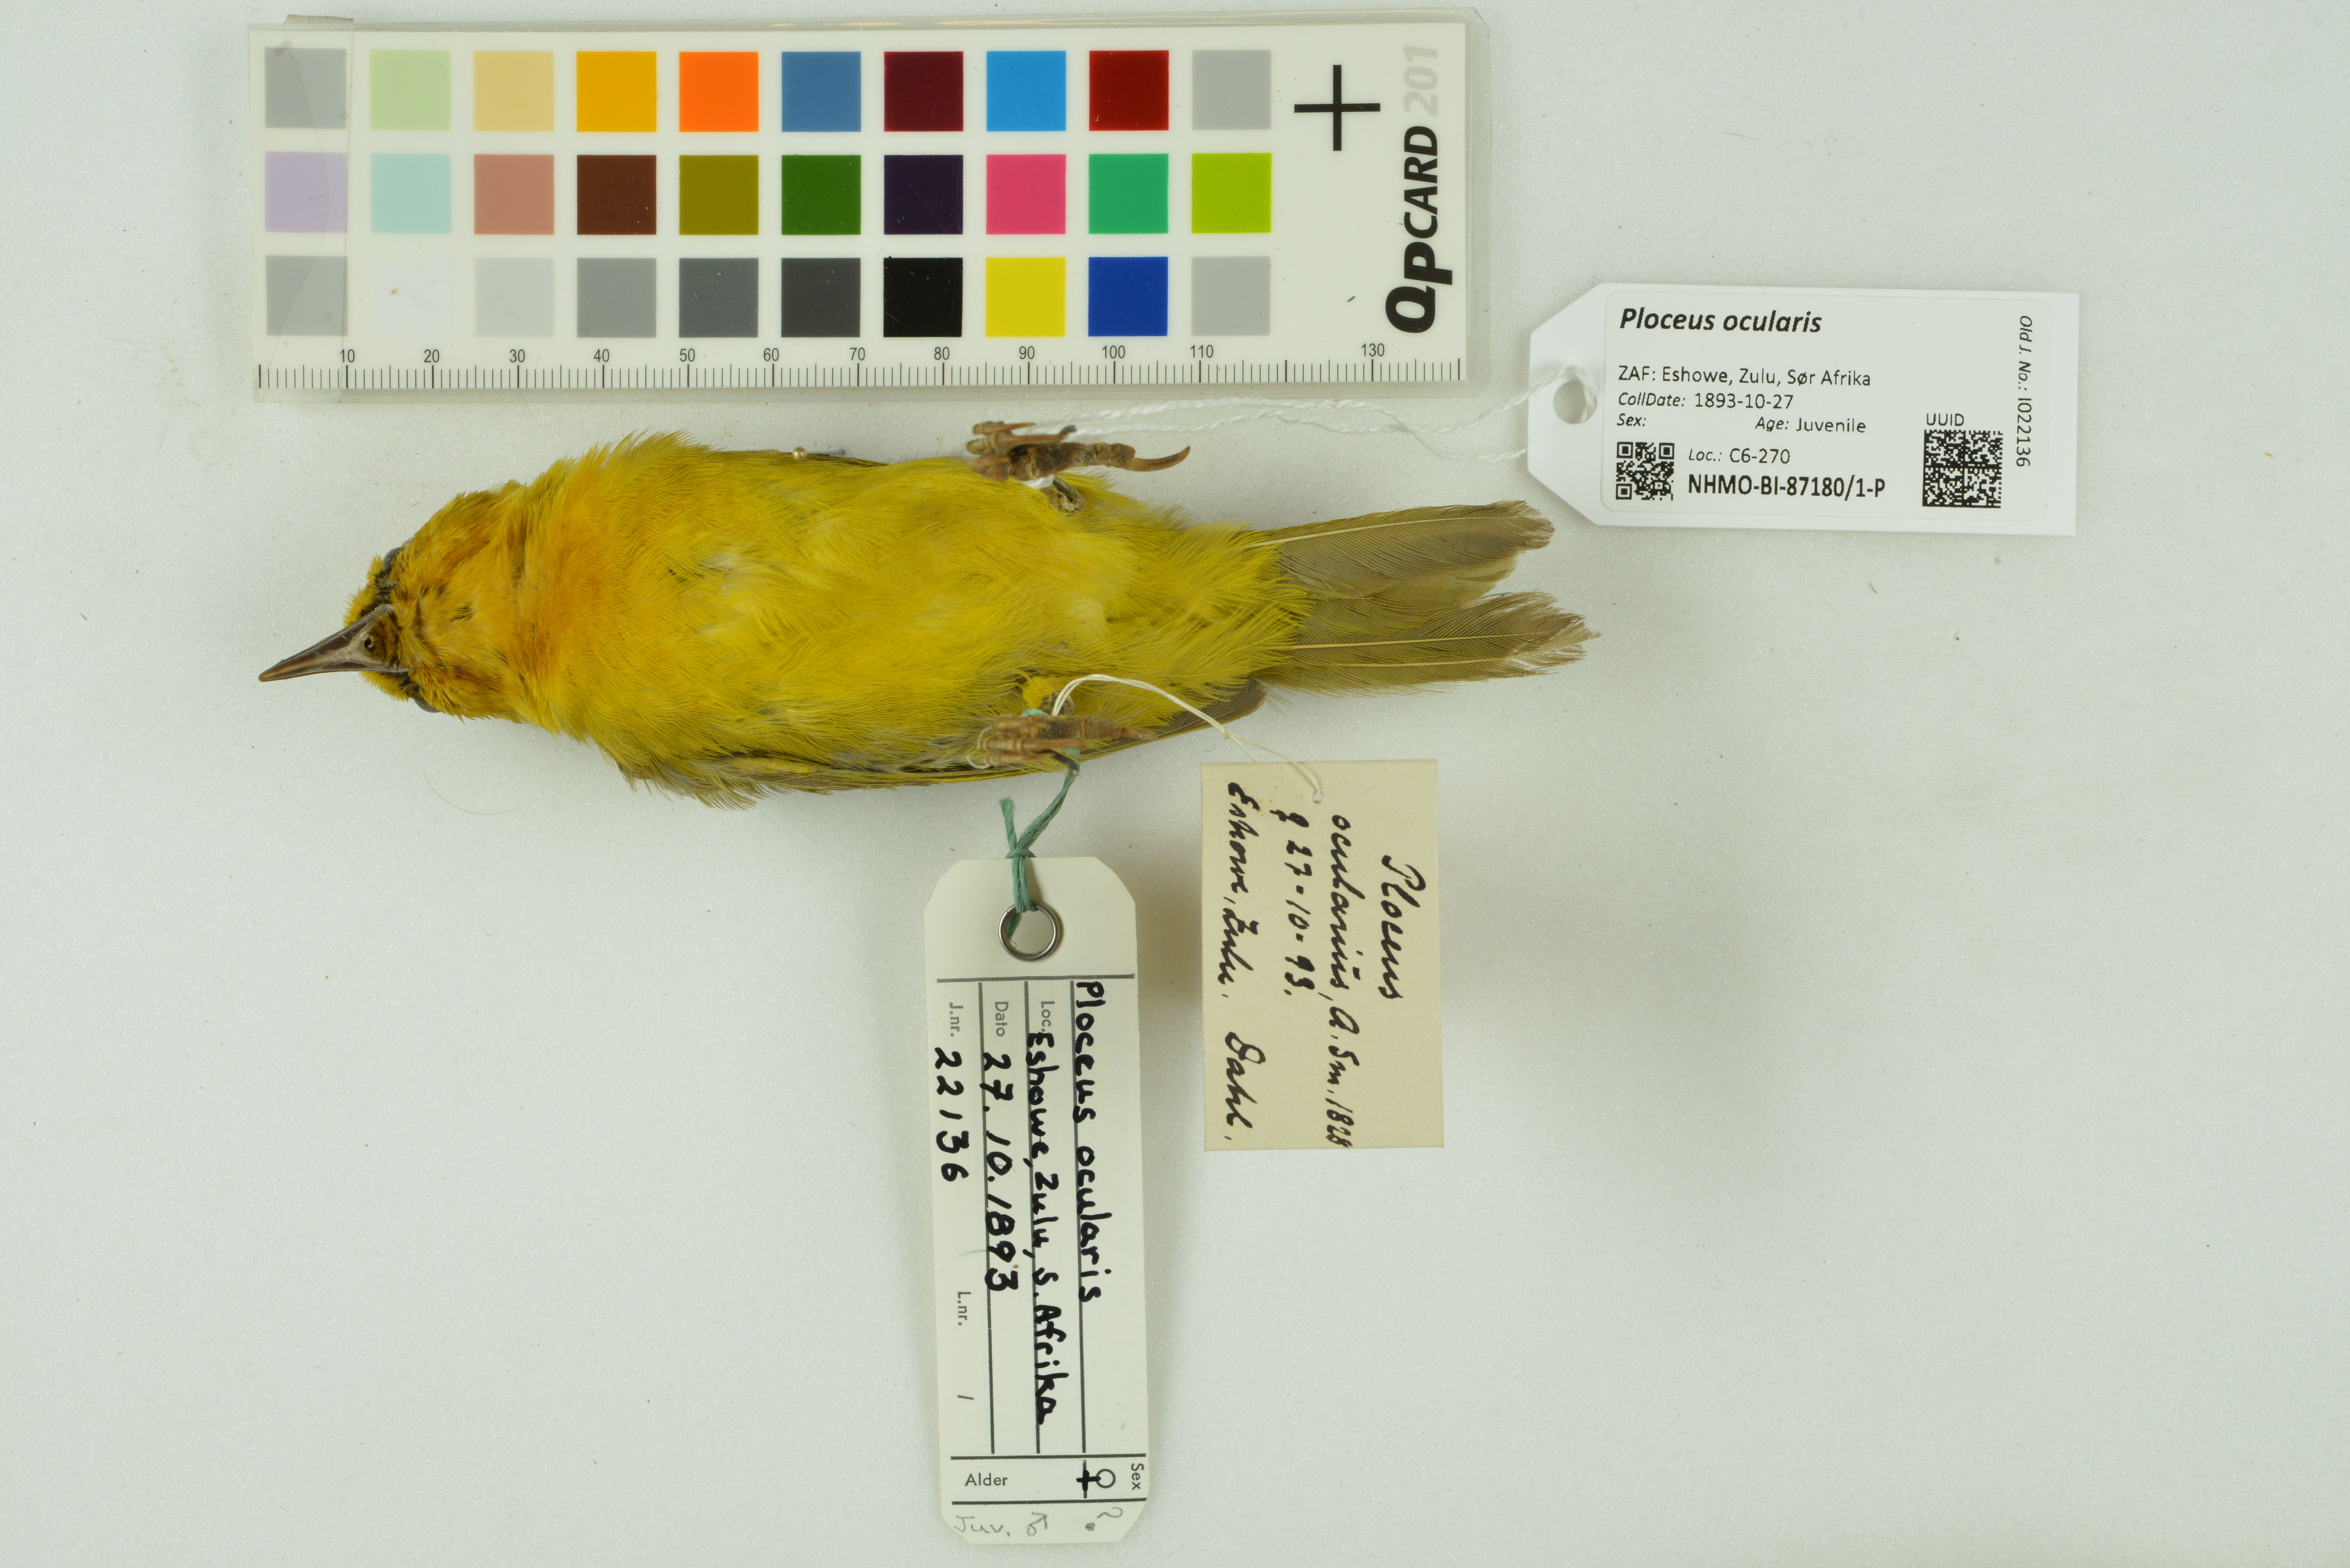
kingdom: Animalia
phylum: Chordata
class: Aves
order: Passeriformes
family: Ploceidae
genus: Ploceus
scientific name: Ploceus ocularis
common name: Spectacled weaver
